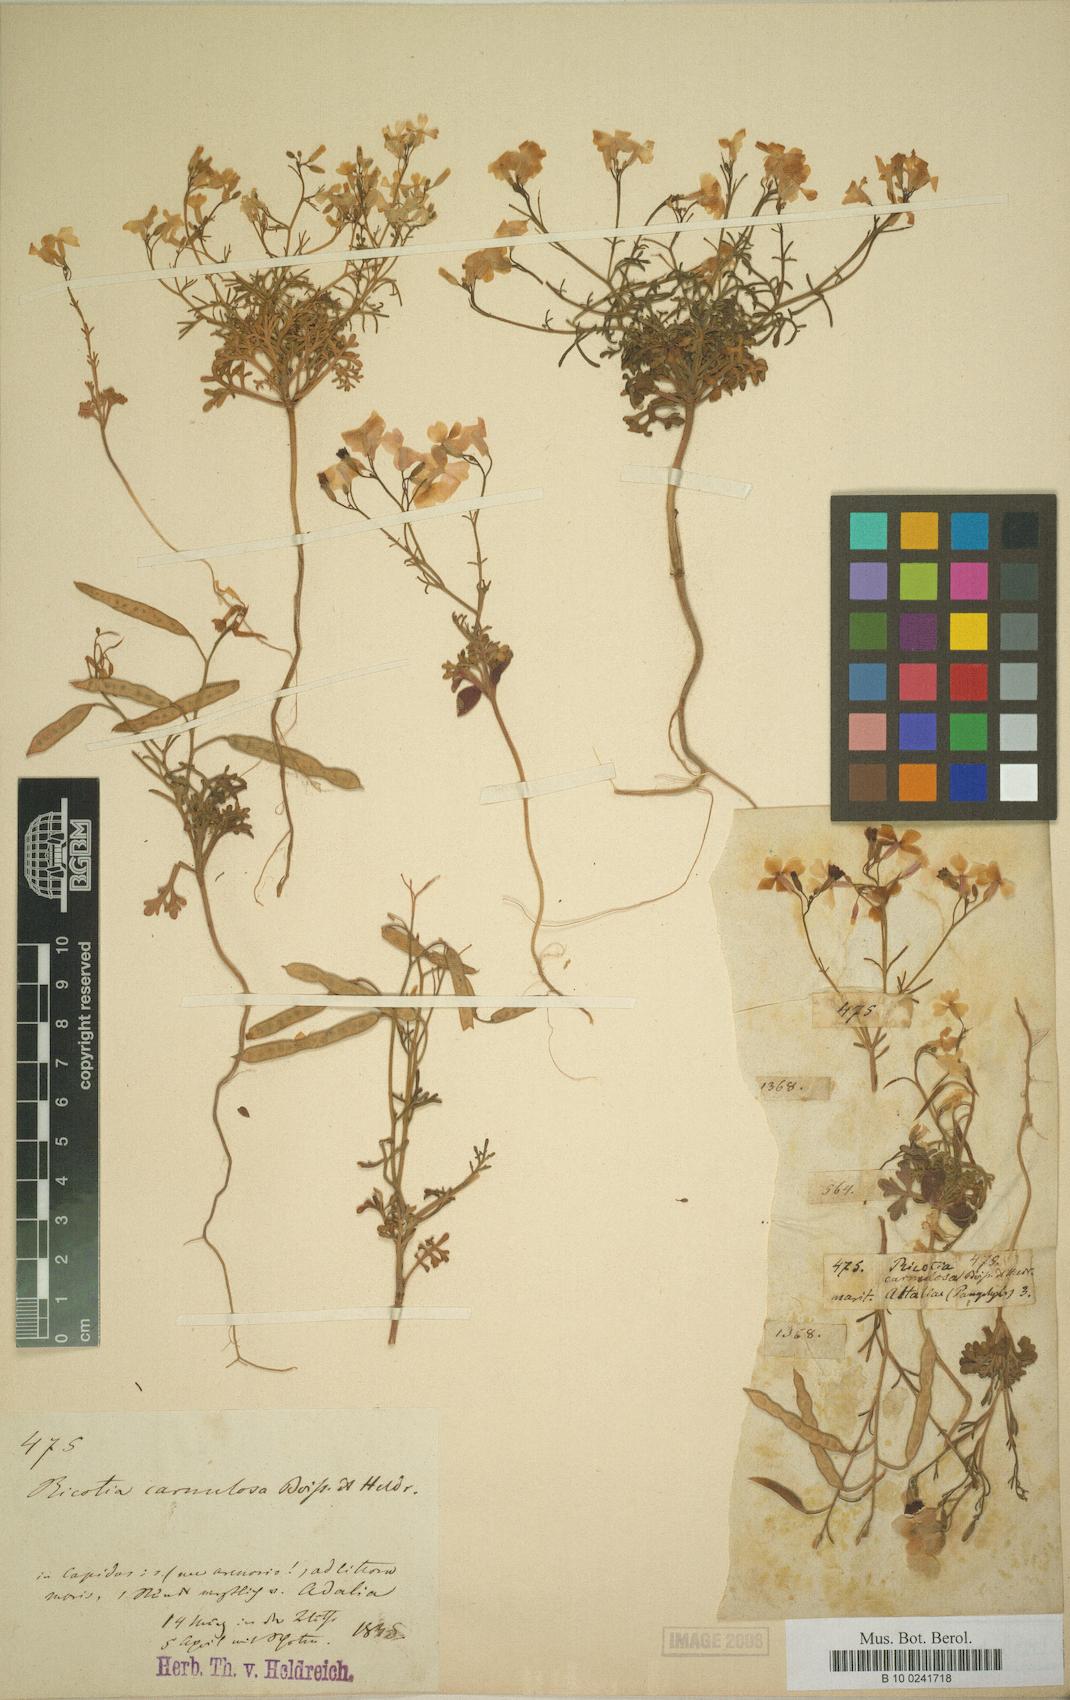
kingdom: Plantae
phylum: Tracheophyta
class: Magnoliopsida
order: Brassicales
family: Brassicaceae
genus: Ricotia
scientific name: Ricotia carnosula
